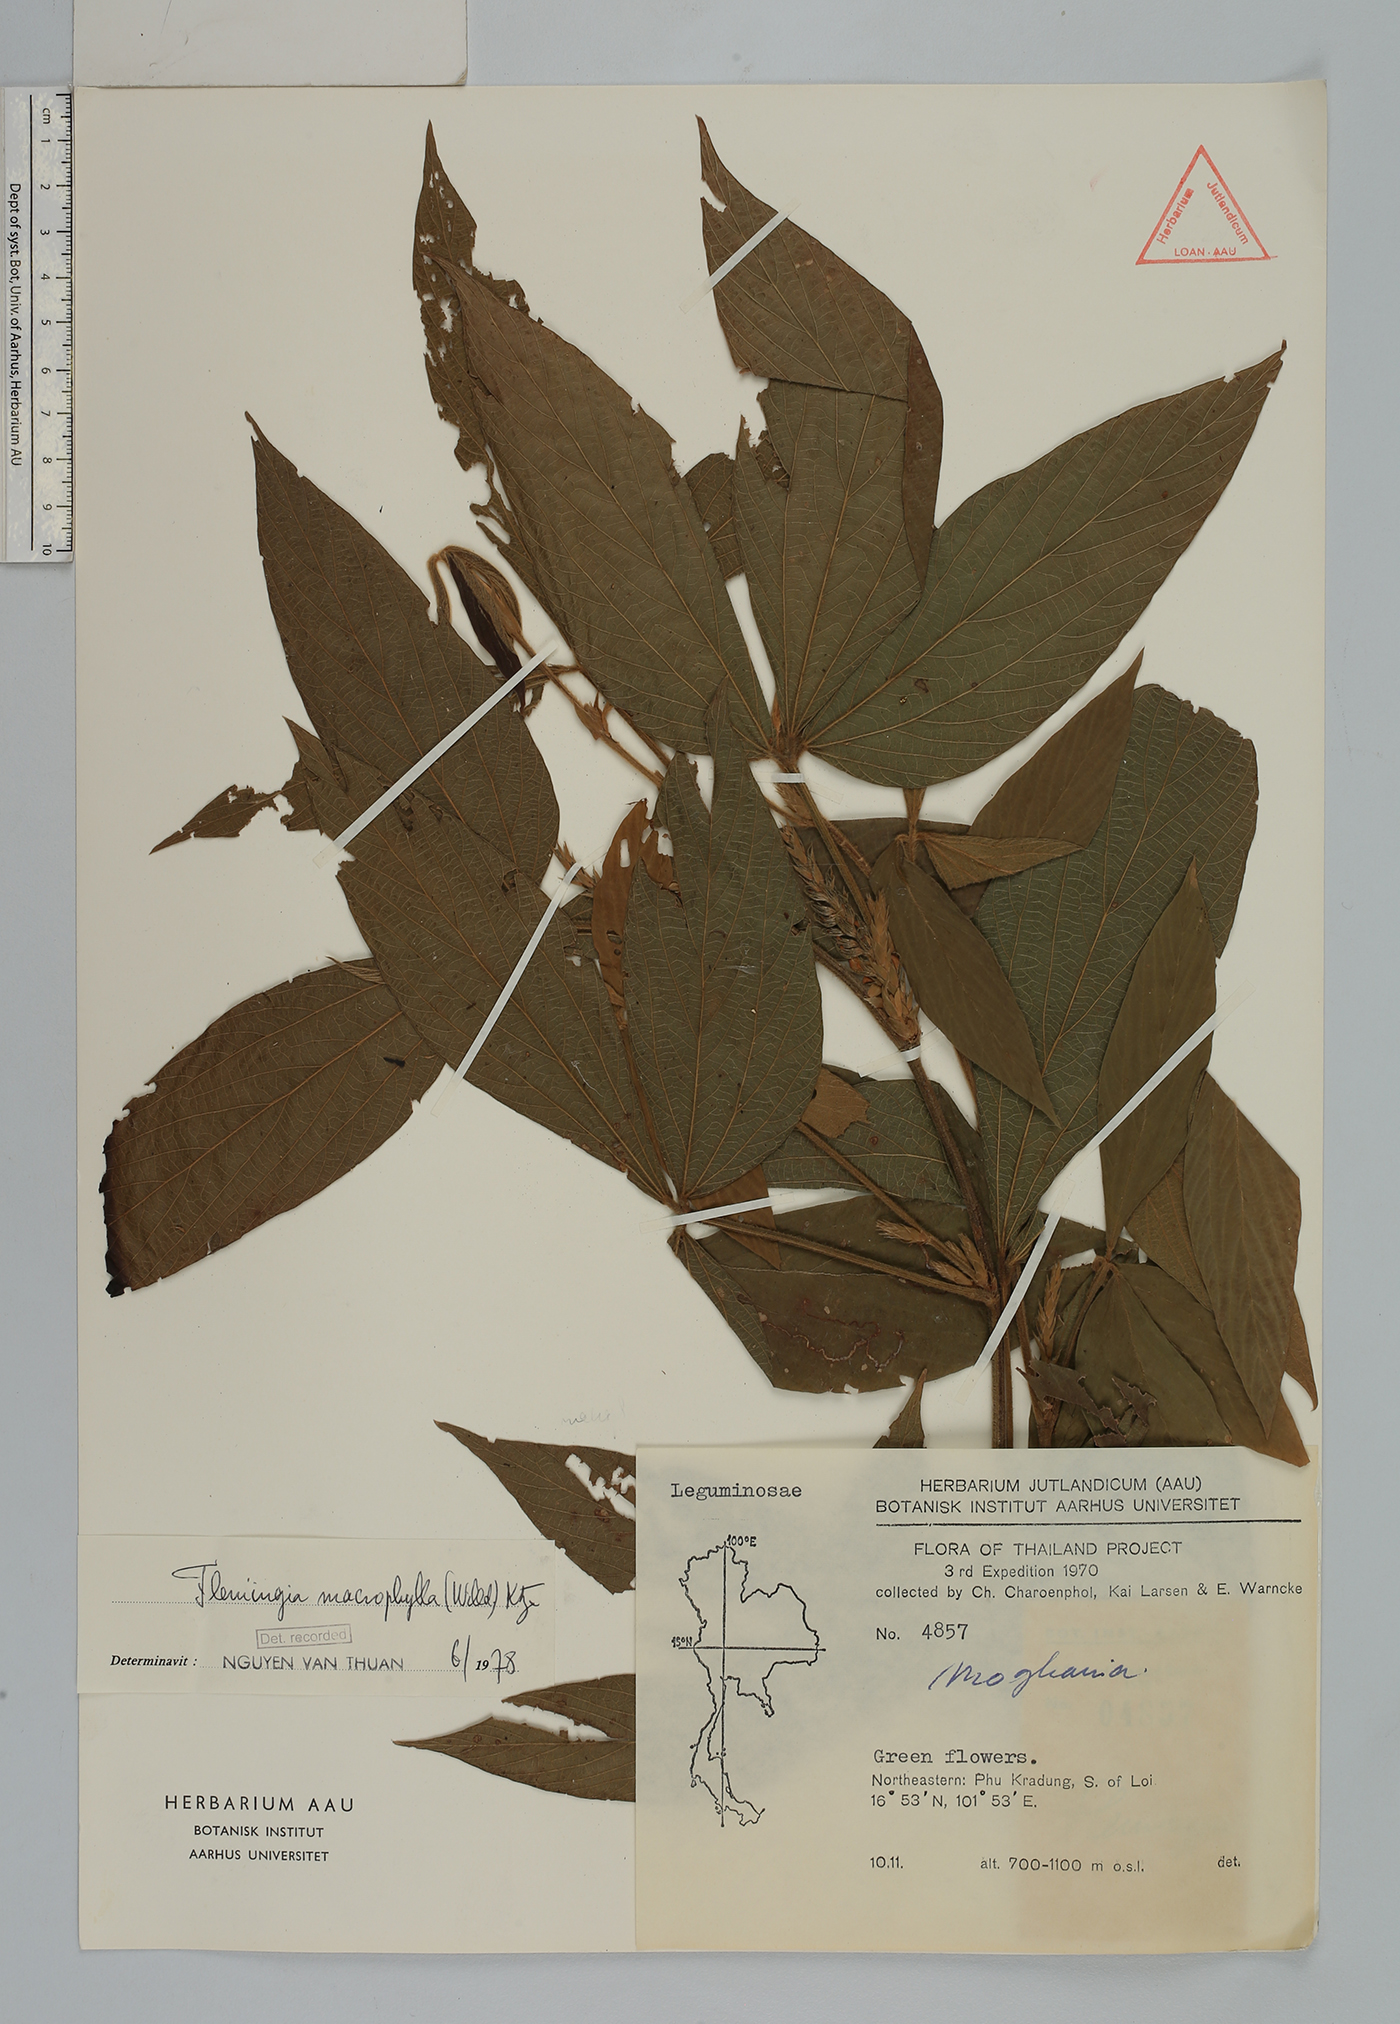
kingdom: Plantae
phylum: Tracheophyta
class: Magnoliopsida
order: Fabales
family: Fabaceae
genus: Flemingia
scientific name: Flemingia macrophylla
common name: Flemingia
